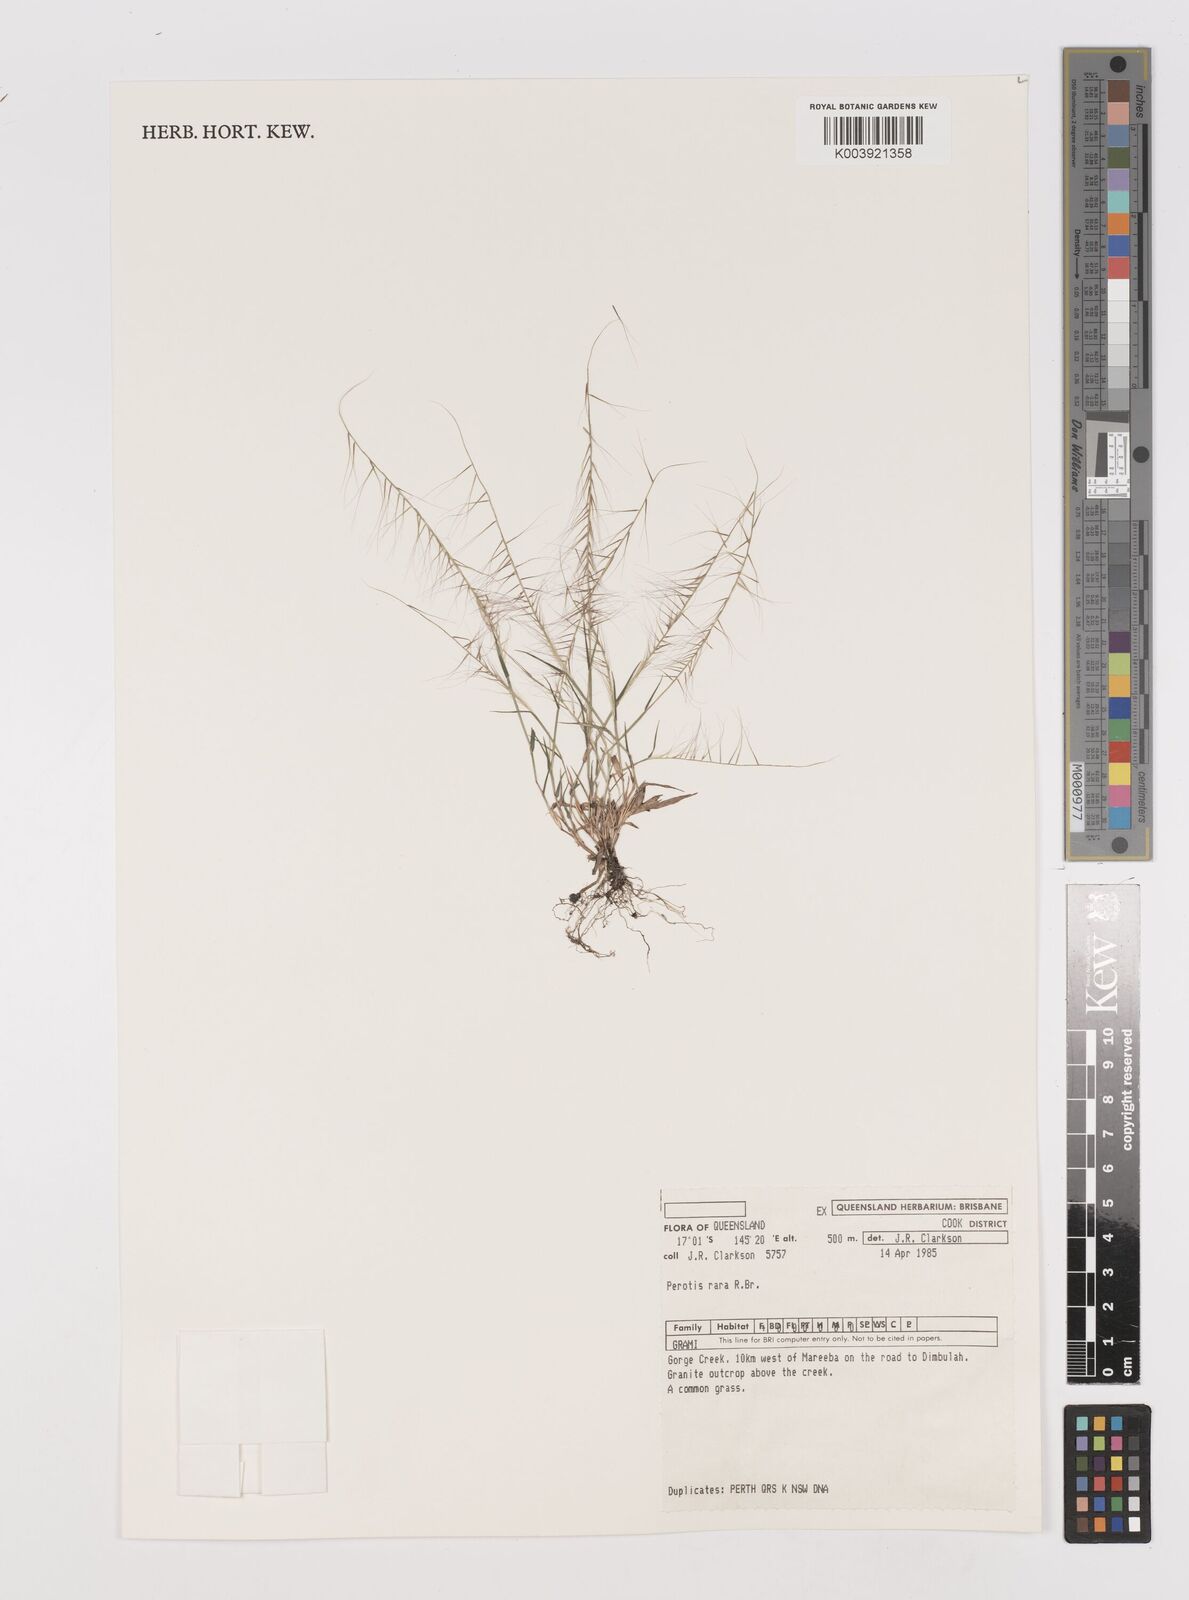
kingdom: Plantae
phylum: Tracheophyta
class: Liliopsida
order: Poales
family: Poaceae
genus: Perotis
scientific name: Perotis rara
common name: Comet grass
